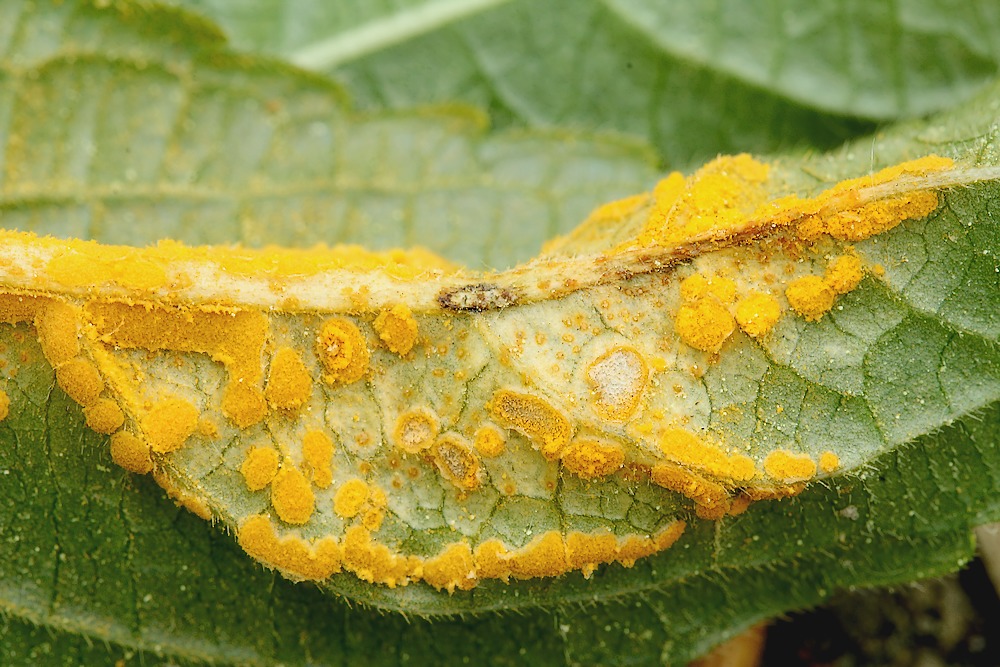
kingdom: Fungi
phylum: Basidiomycota
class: Pucciniomycetes
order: Pucciniales
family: Melampsoraceae
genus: Melampsora
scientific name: Melampsora populnea
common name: poppel-skorperust
